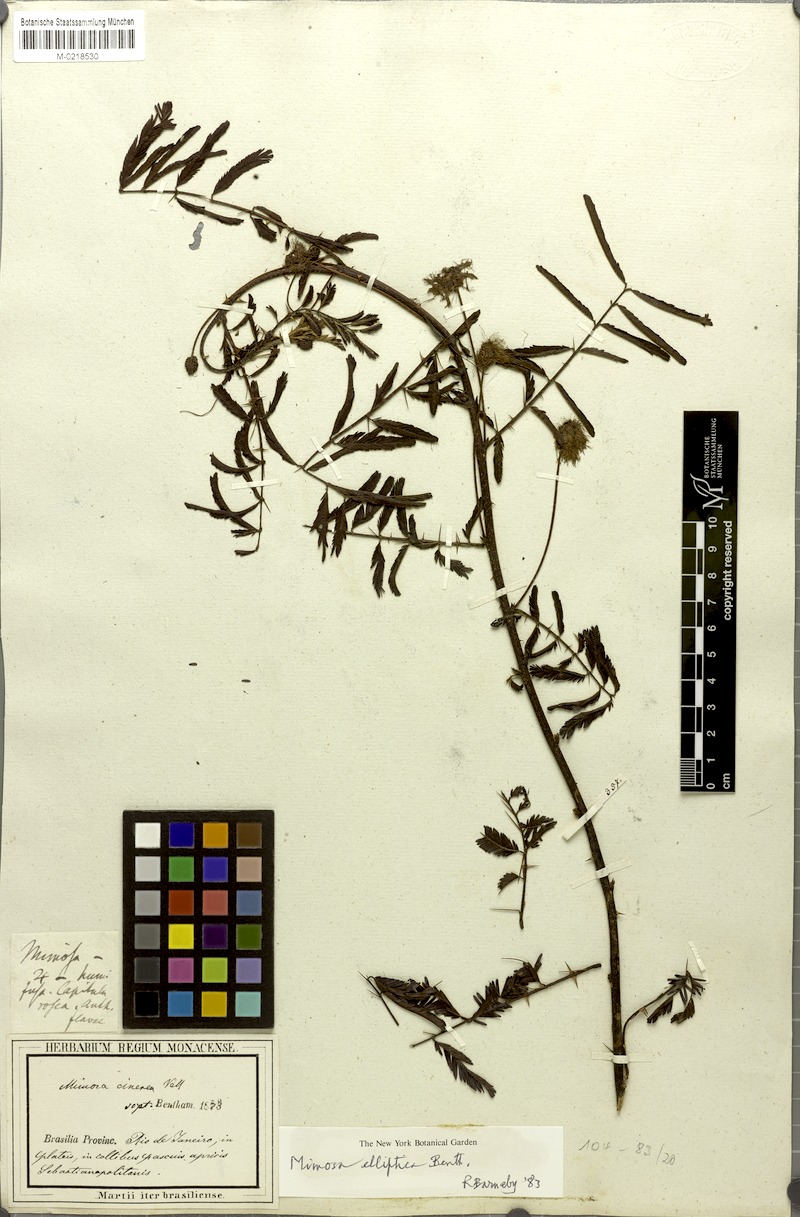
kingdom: Plantae
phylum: Tracheophyta
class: Magnoliopsida
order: Fabales
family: Fabaceae
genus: Mimosa
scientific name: Mimosa elliptica
